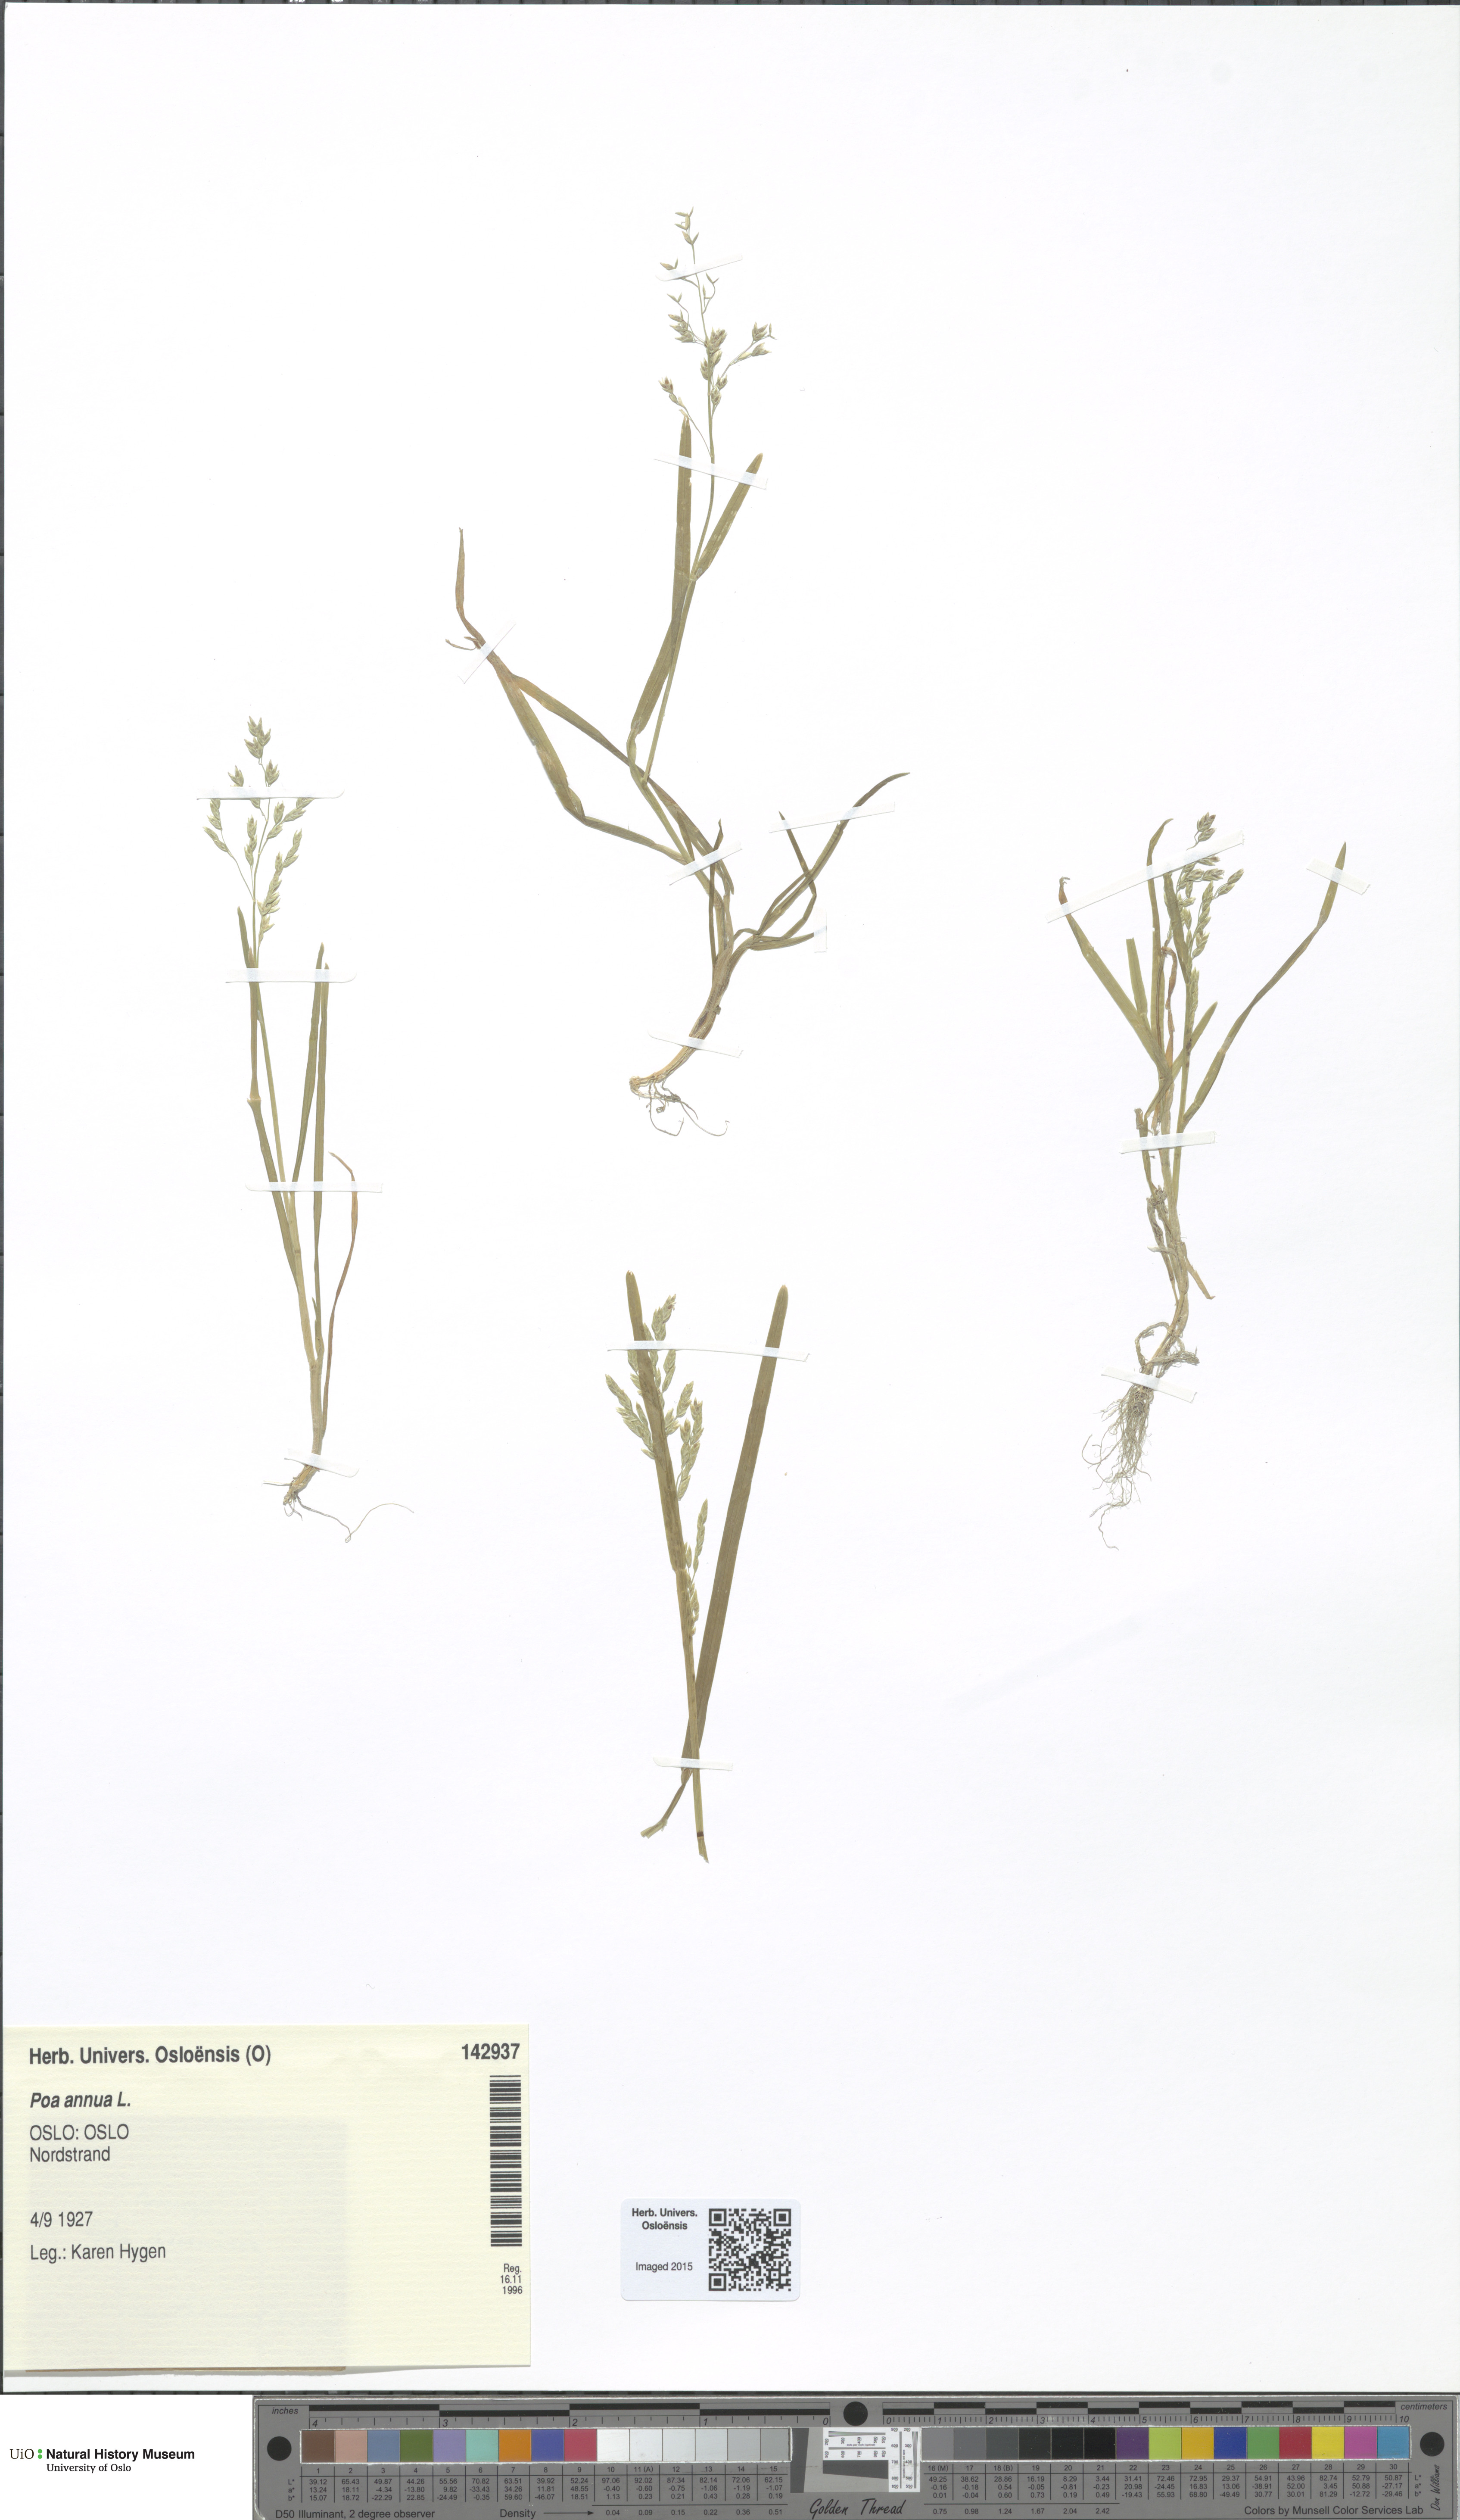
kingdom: Plantae
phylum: Tracheophyta
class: Liliopsida
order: Poales
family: Poaceae
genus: Poa
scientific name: Poa annua
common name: Annual bluegrass
